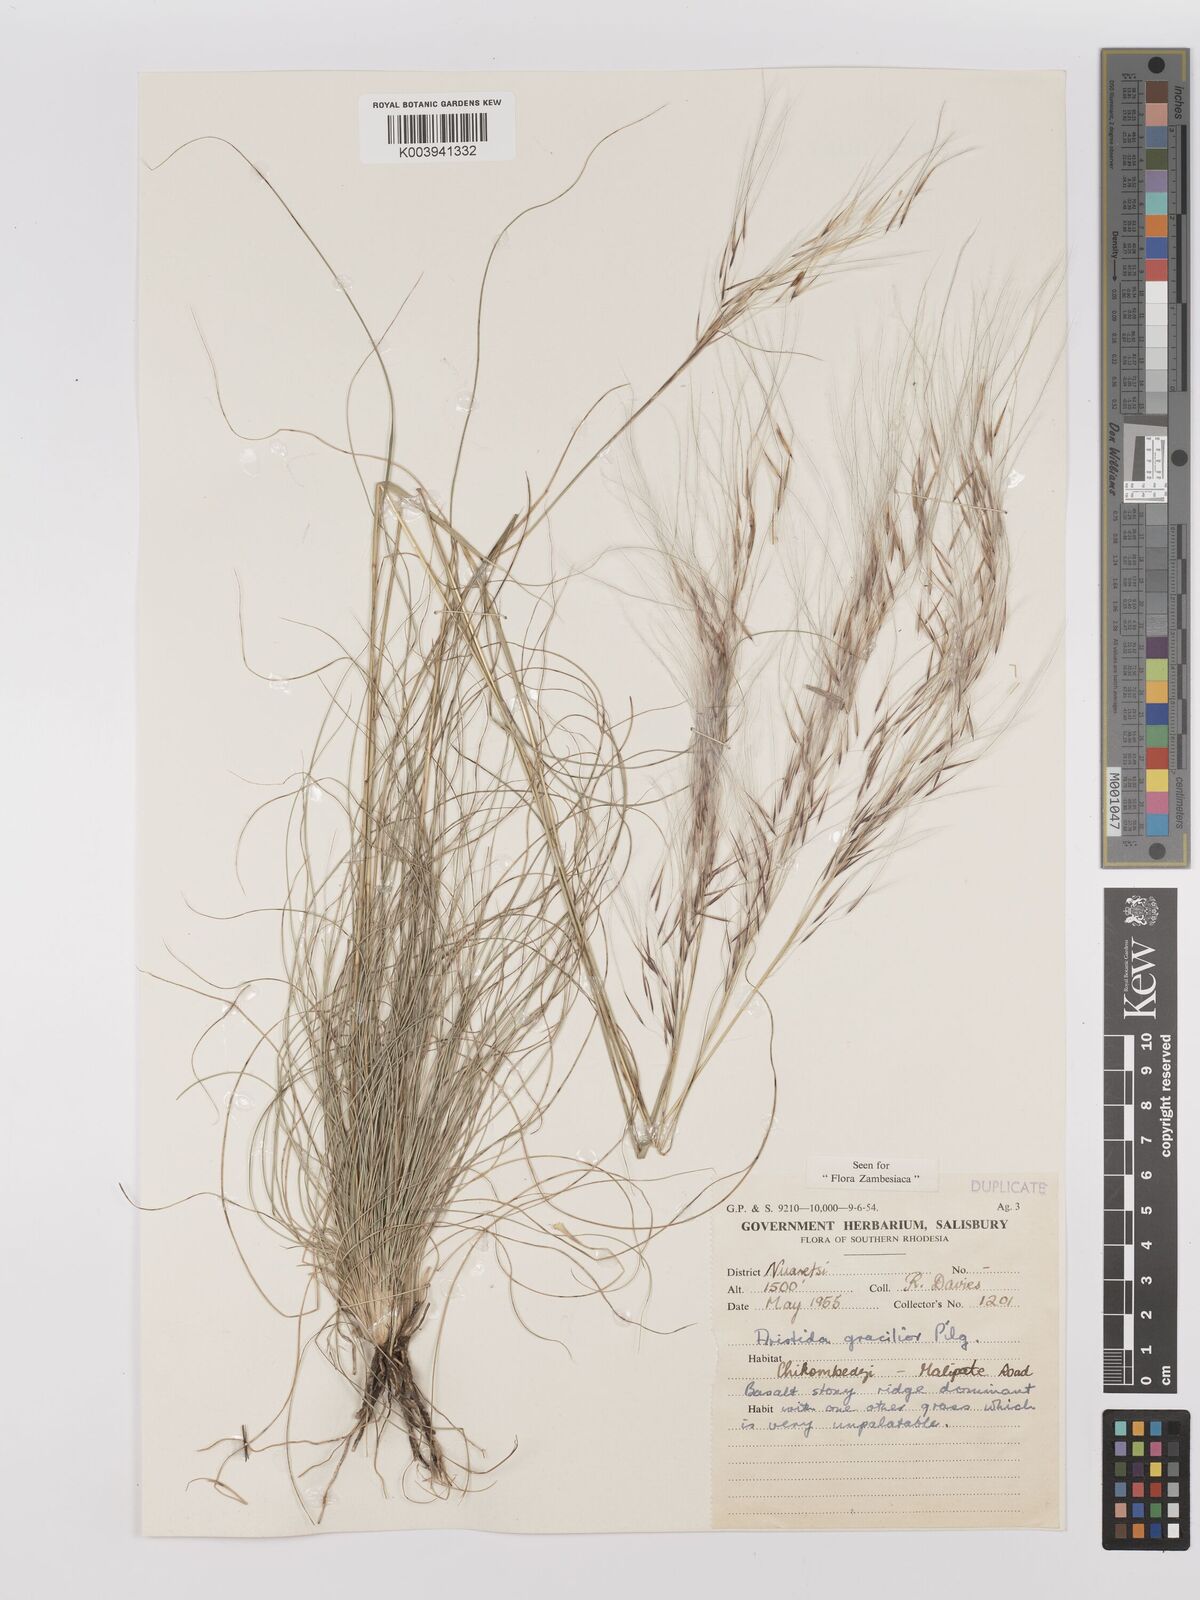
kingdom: Plantae
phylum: Tracheophyta
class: Liliopsida
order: Poales
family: Poaceae
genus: Stipagrostis
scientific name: Stipagrostis hirtigluma
